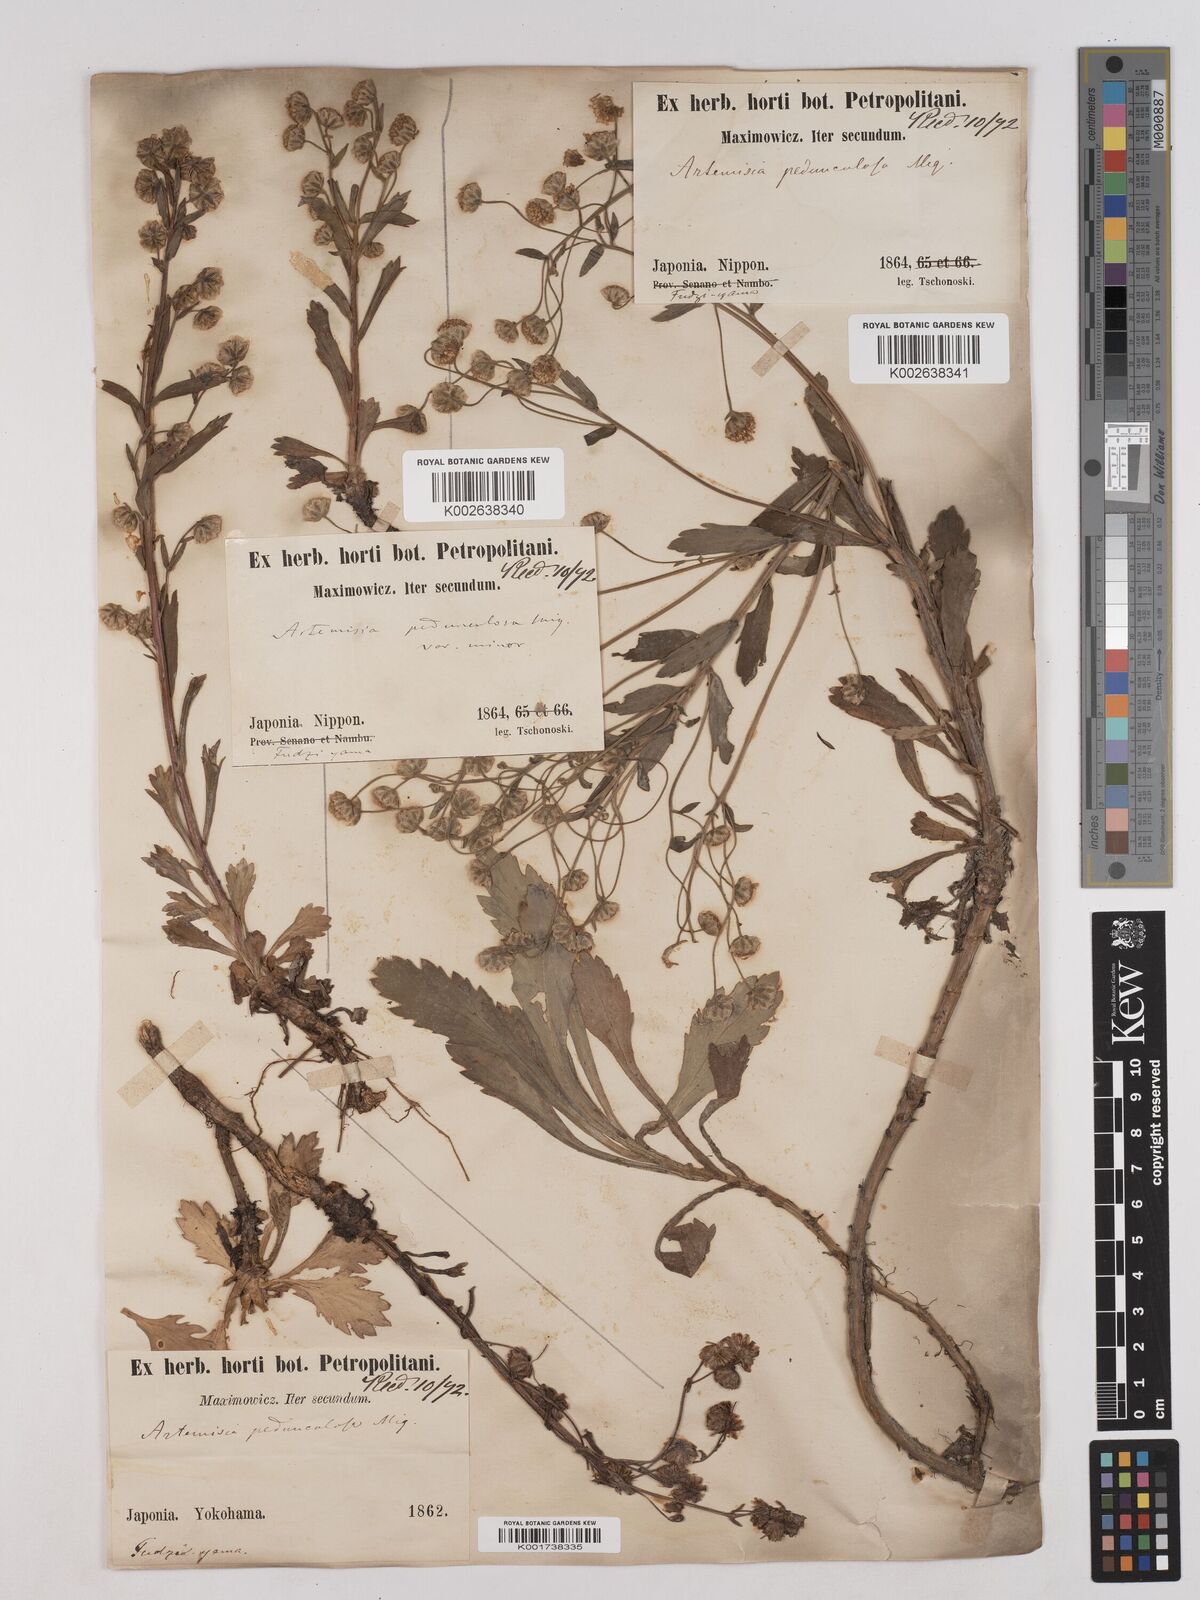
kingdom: Plantae
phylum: Tracheophyta
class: Magnoliopsida
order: Asterales
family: Asteraceae
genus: Artemisia
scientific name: Artemisia pedunculosa
